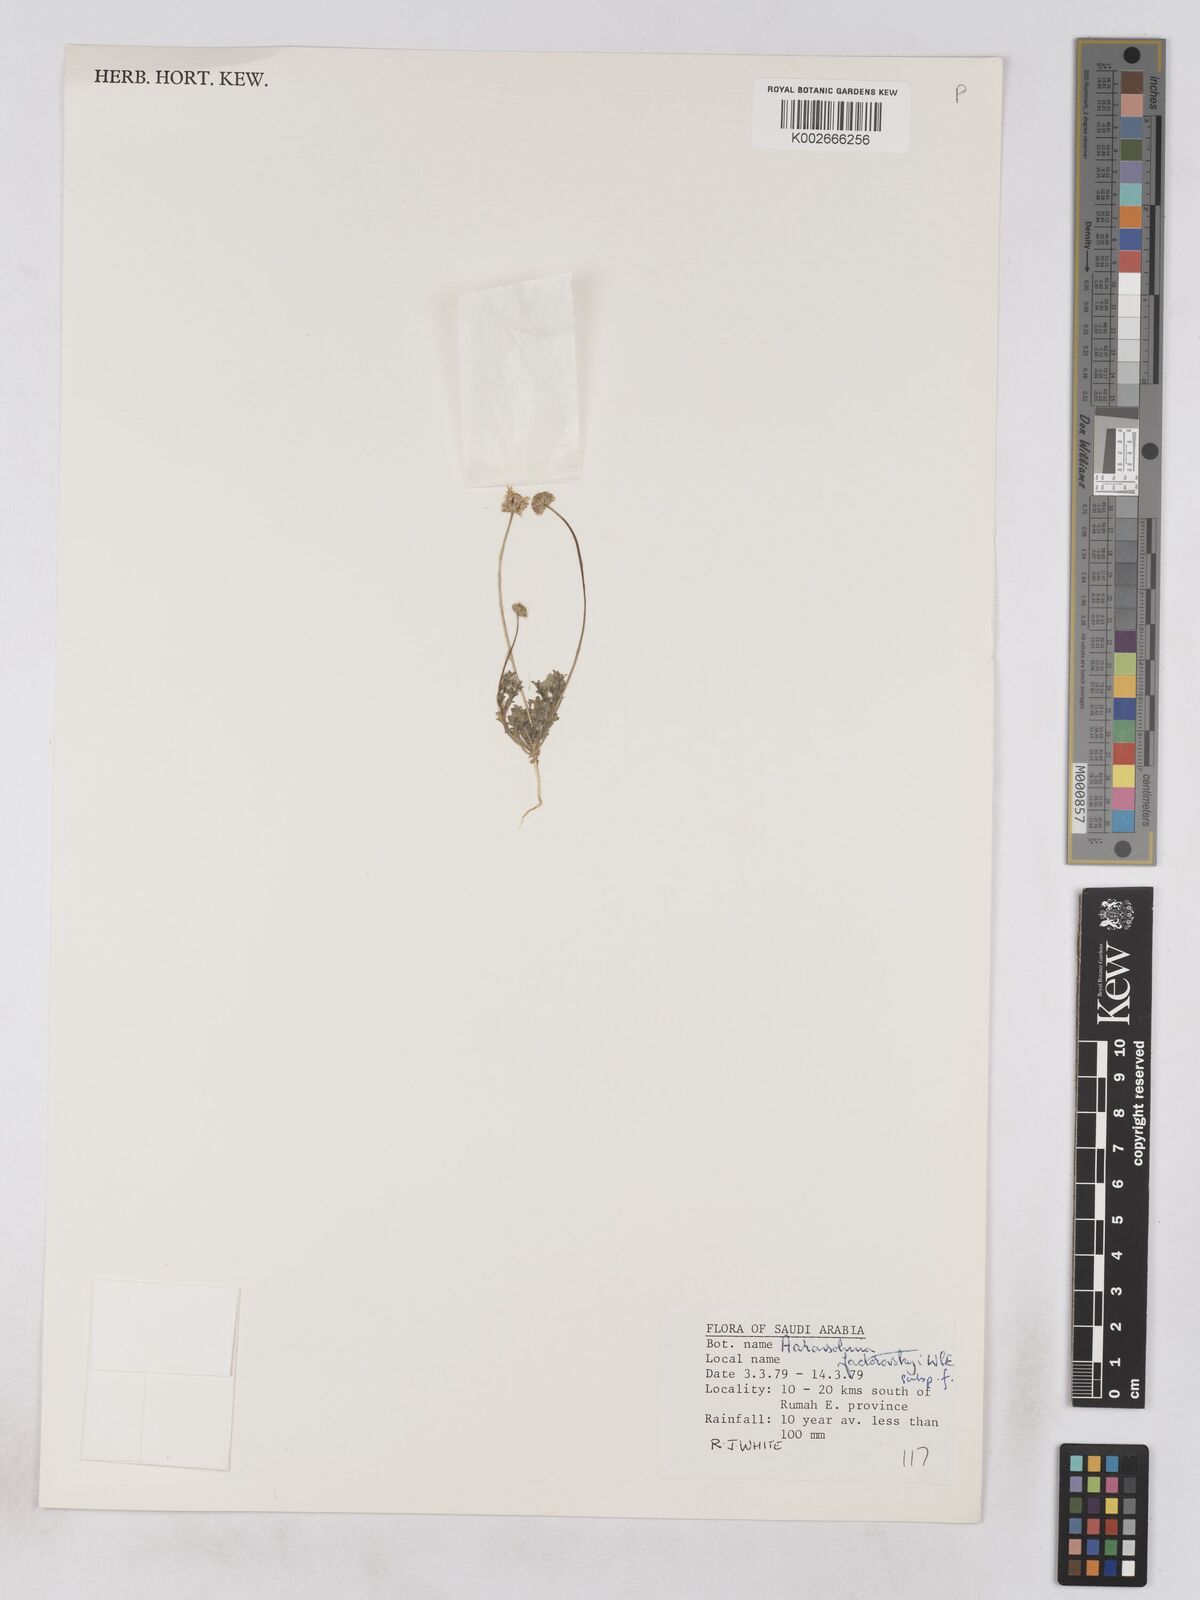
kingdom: Plantae
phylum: Tracheophyta
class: Magnoliopsida
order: Asterales
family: Asteraceae
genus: Otoglyphis
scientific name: Otoglyphis factorovskyi
